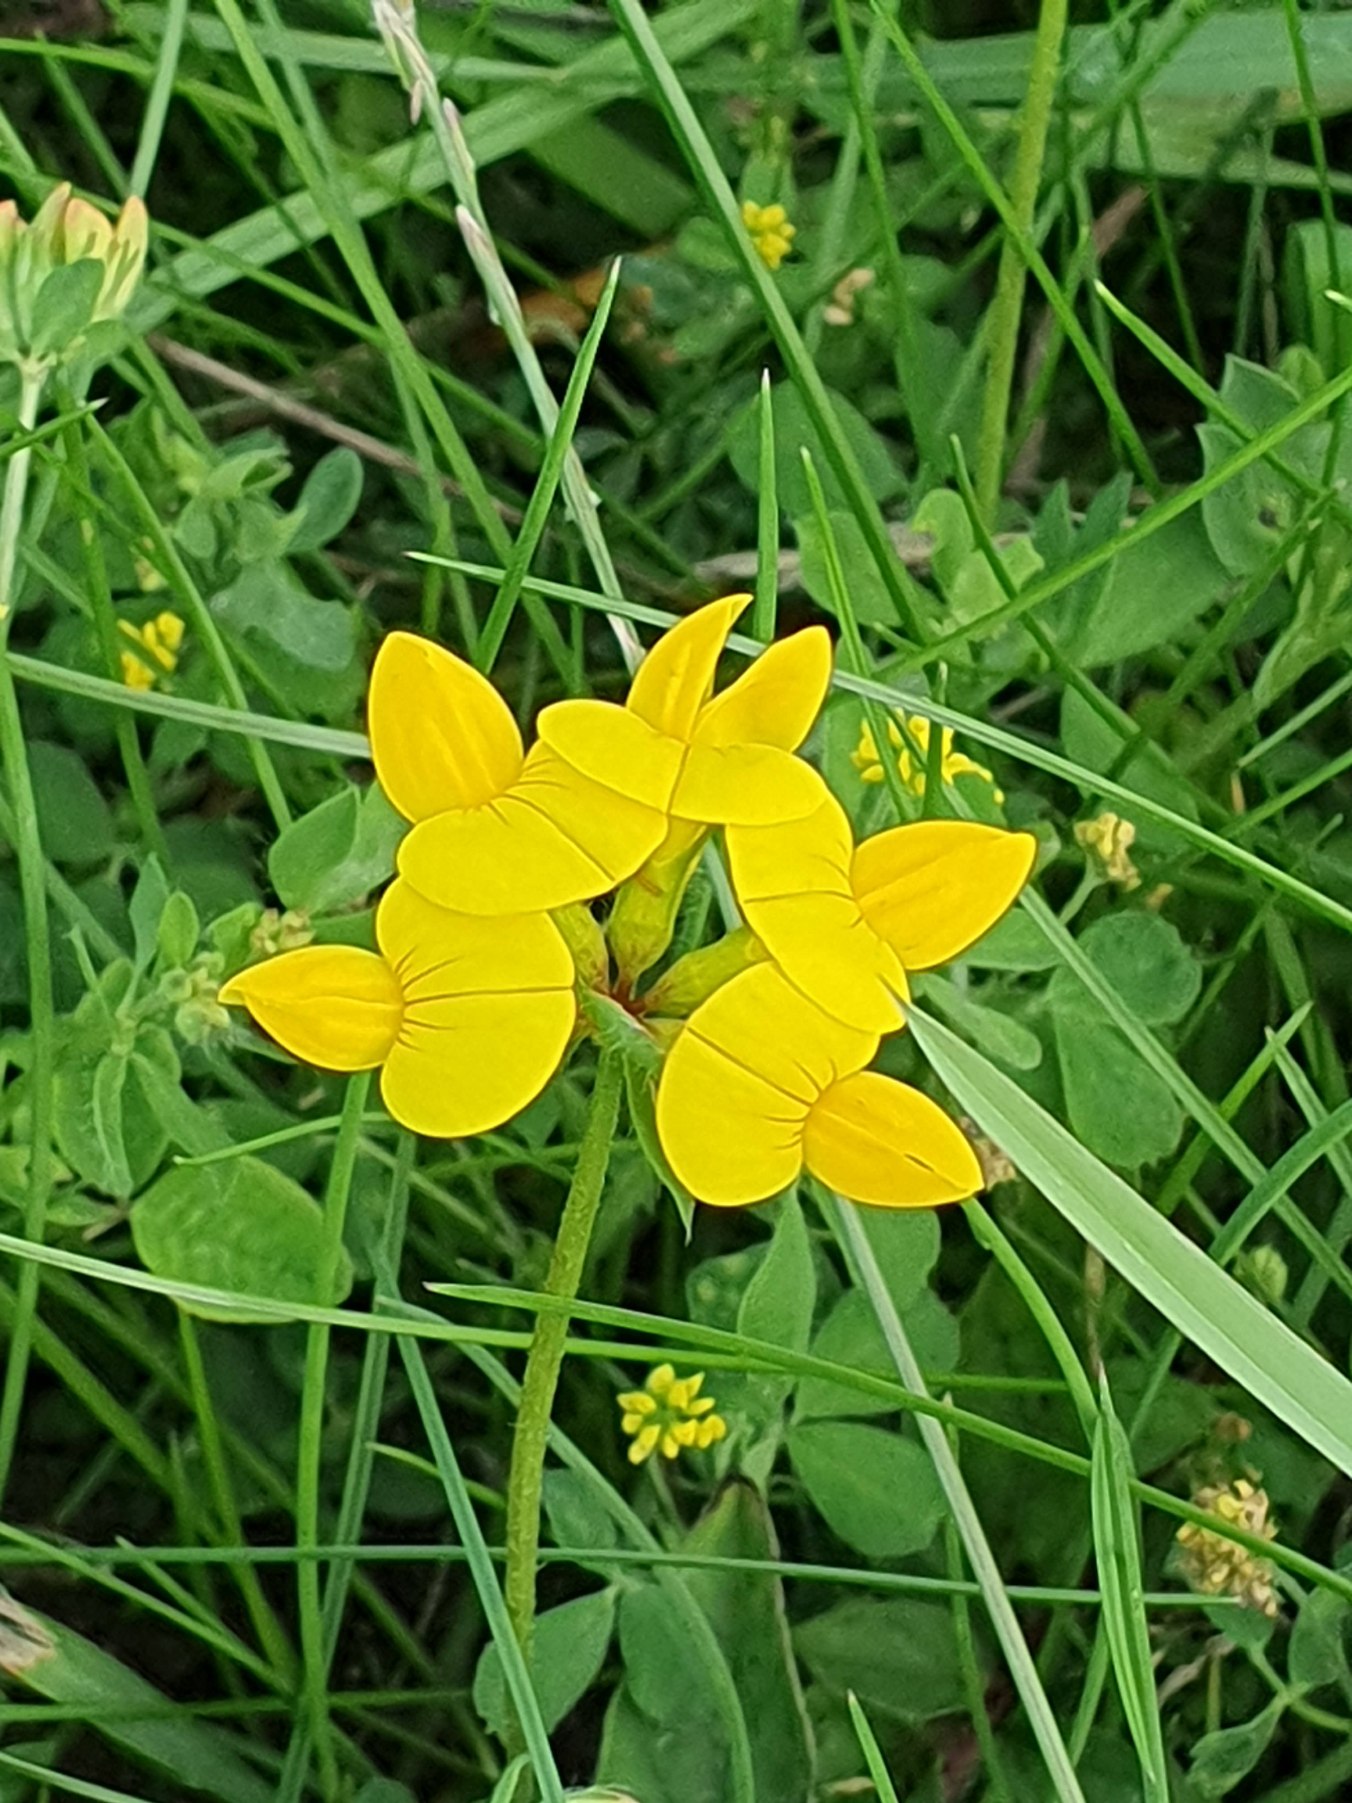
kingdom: Plantae
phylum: Tracheophyta
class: Magnoliopsida
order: Fabales
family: Fabaceae
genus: Lotus
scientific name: Lotus corniculatus
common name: Almindelig kællingetand
